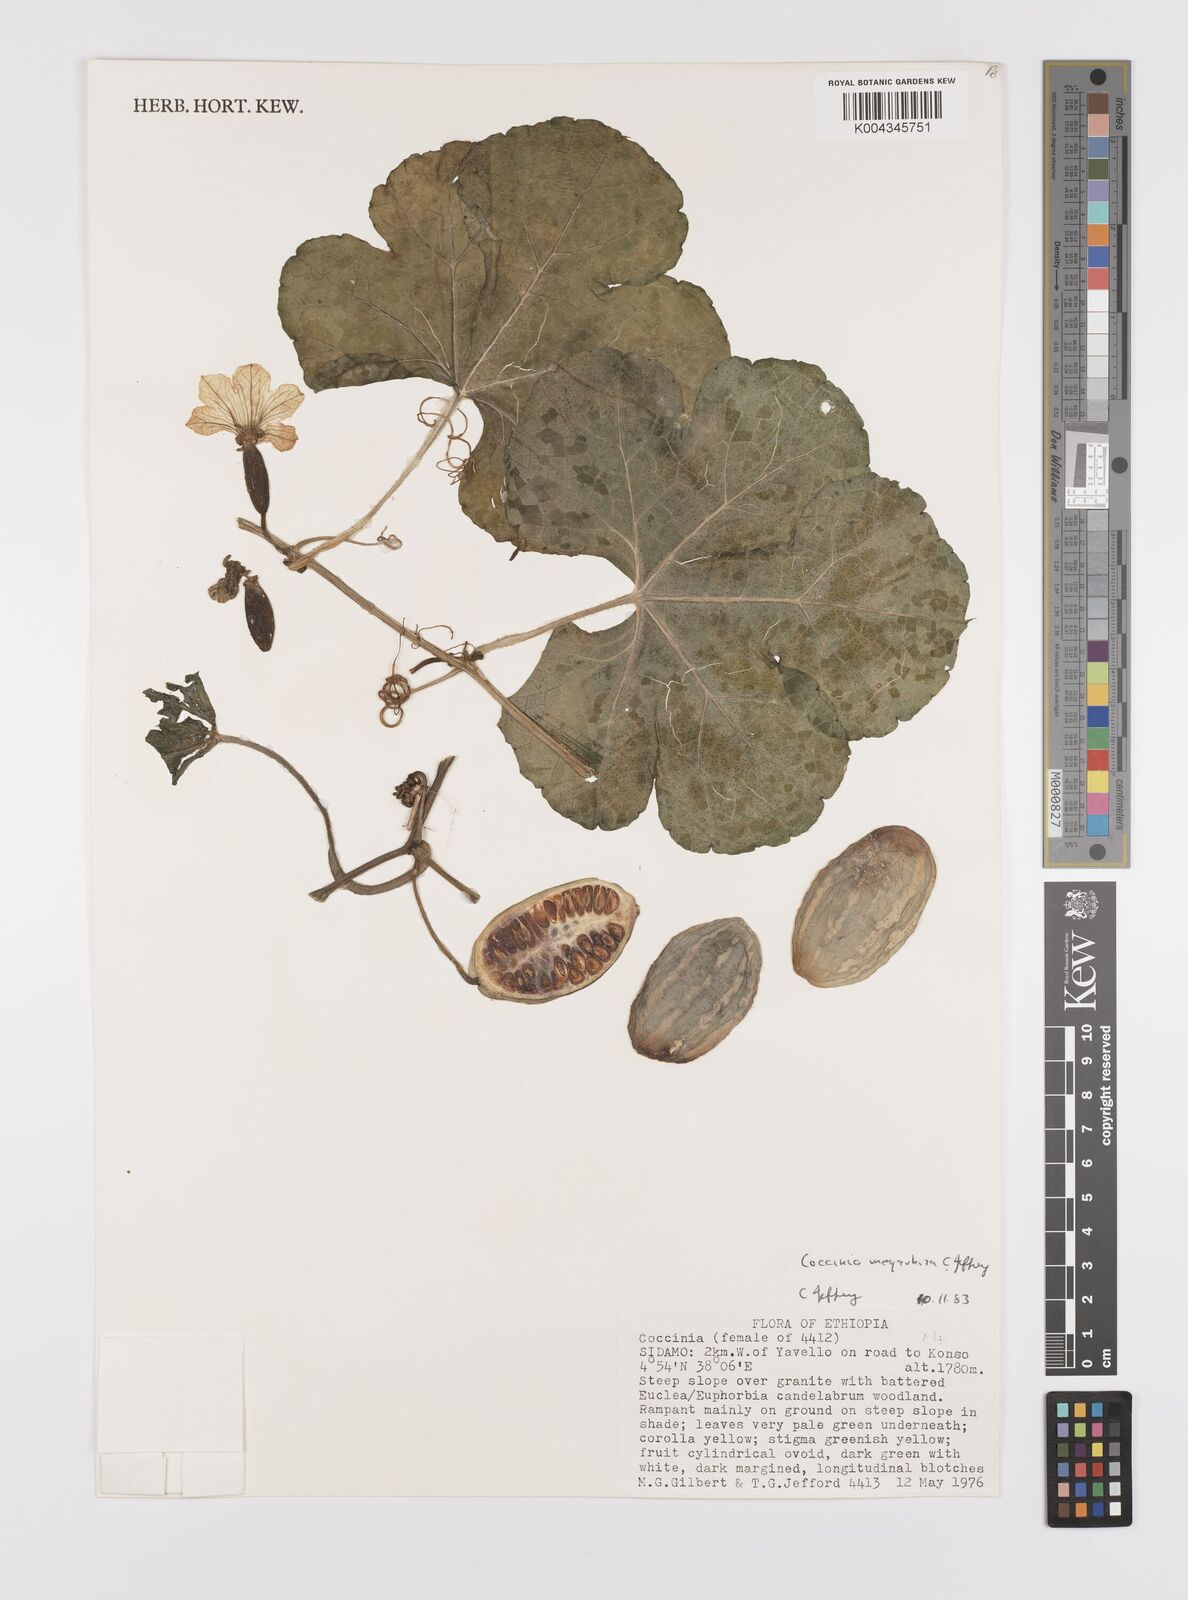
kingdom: Plantae
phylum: Tracheophyta
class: Magnoliopsida
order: Cucurbitales
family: Cucurbitaceae
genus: Coccinia
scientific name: Coccinia megarrhiza
